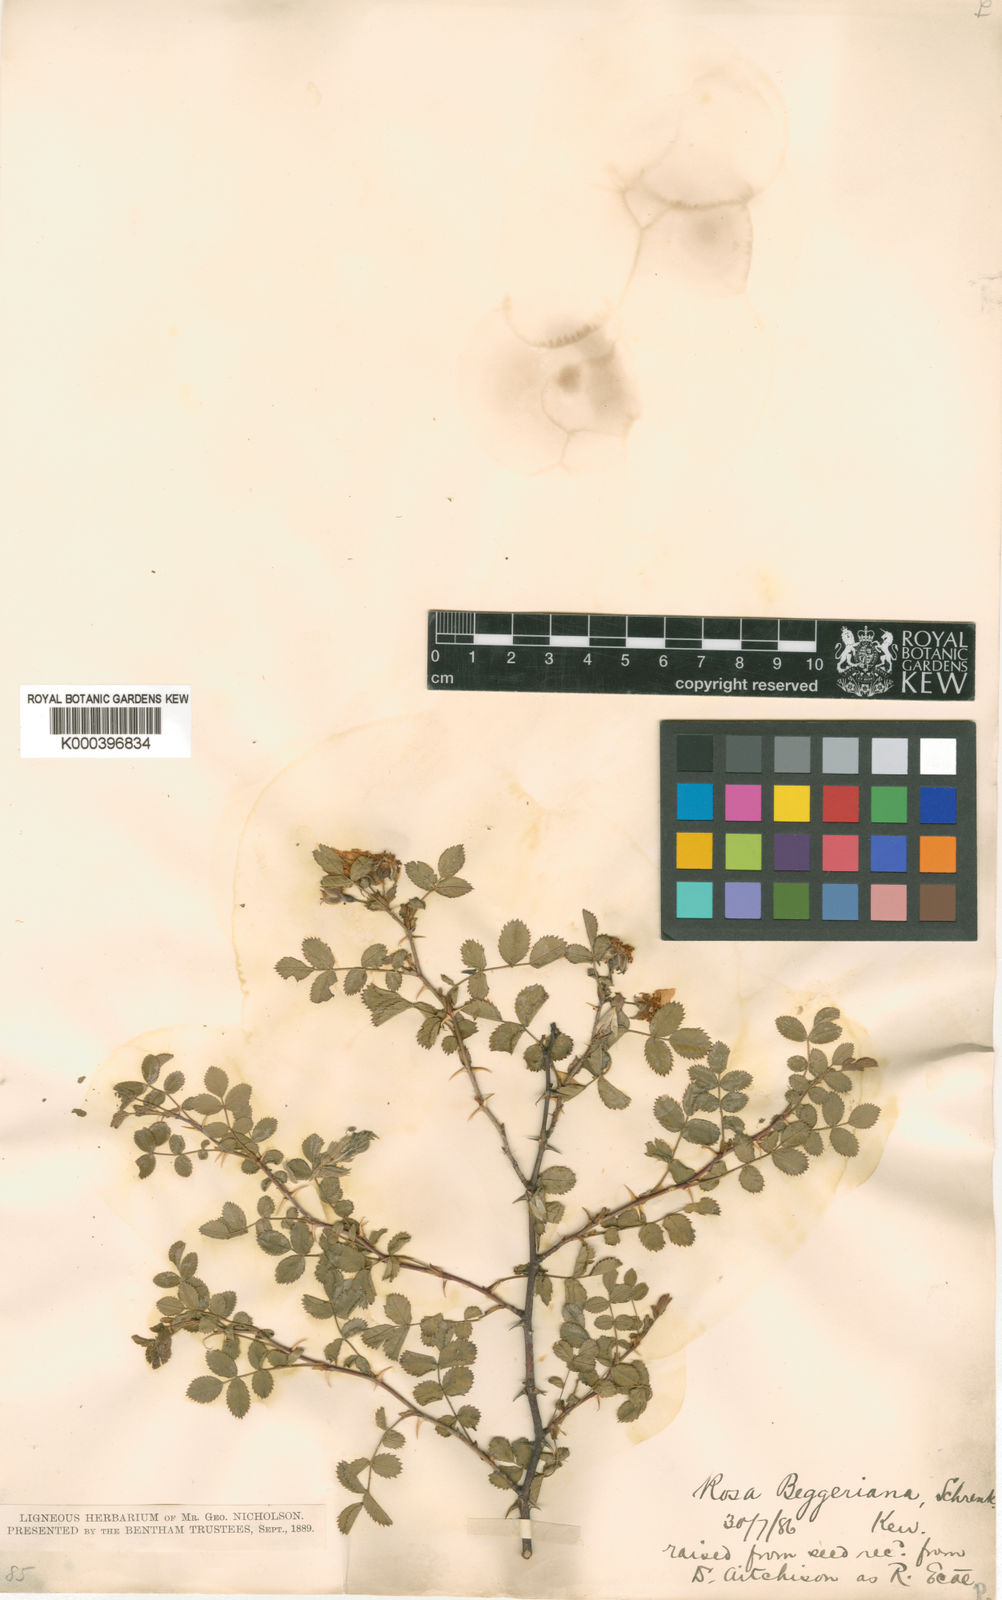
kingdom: Plantae
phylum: Tracheophyta
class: Magnoliopsida
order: Rosales
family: Rosaceae
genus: Rosa
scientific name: Rosa beggeriana
